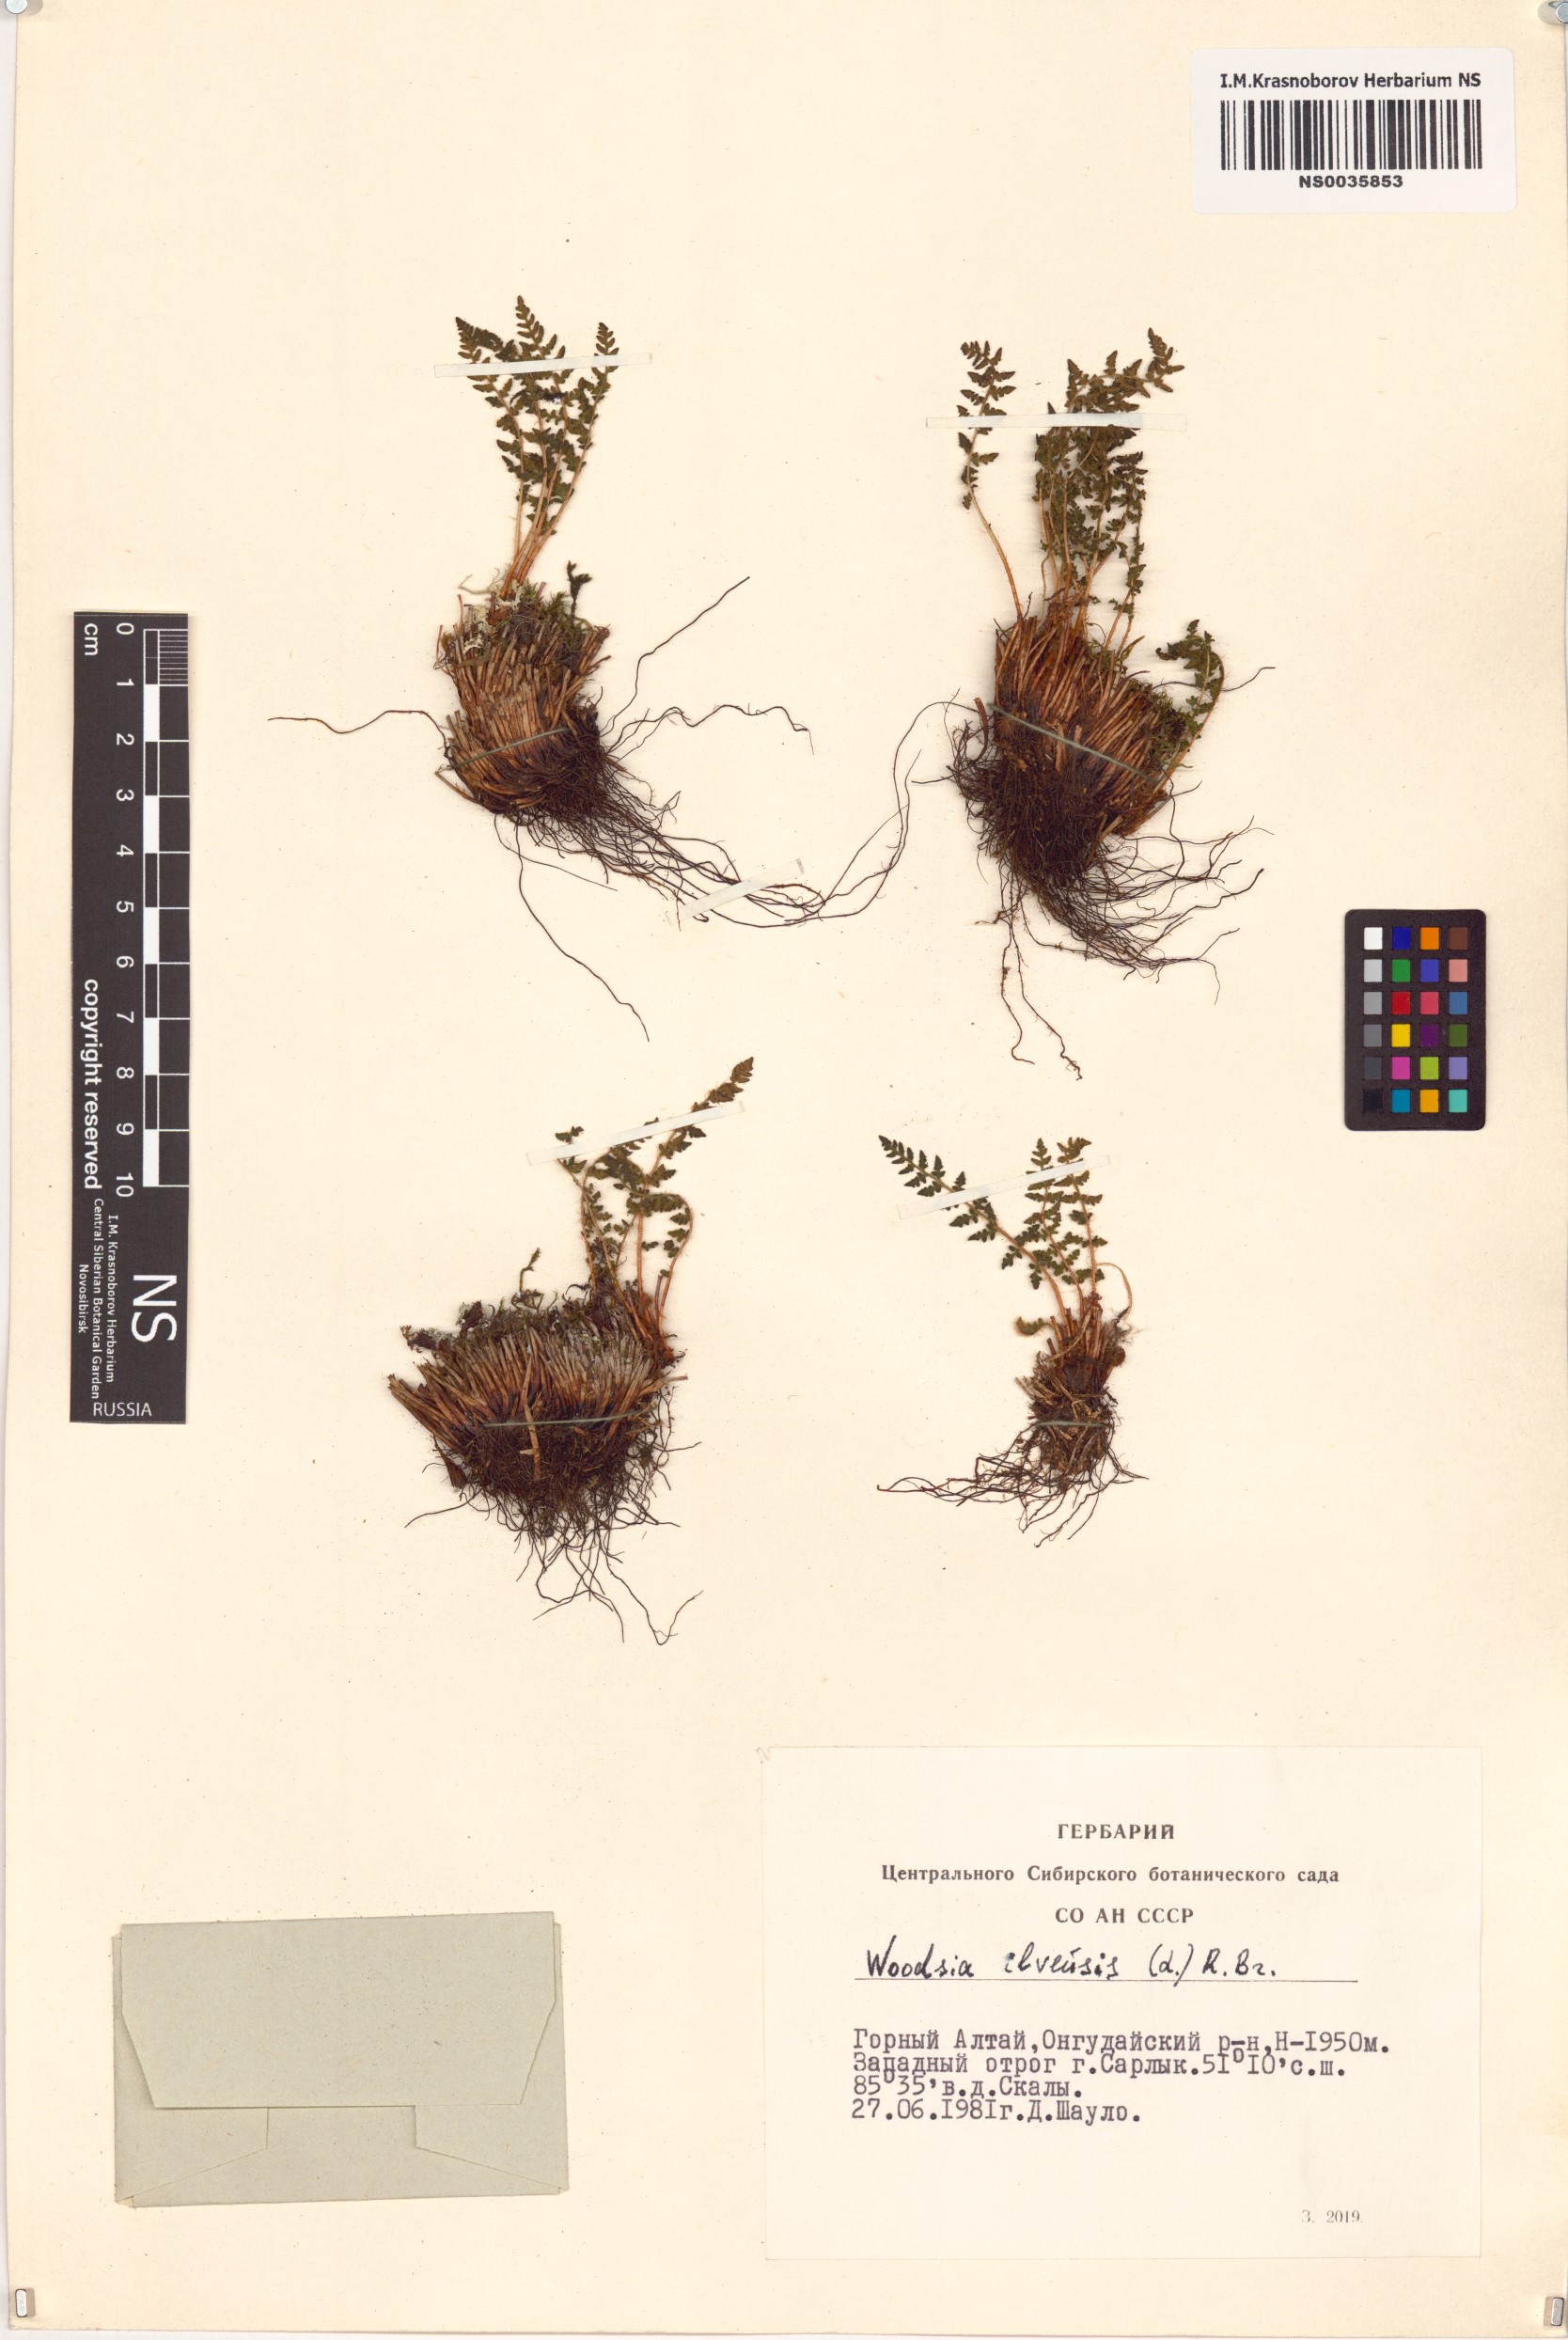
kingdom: Plantae
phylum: Tracheophyta
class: Polypodiopsida
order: Polypodiales
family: Woodsiaceae
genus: Woodsia
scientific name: Woodsia ilvensis
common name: Fragrant woodsia
